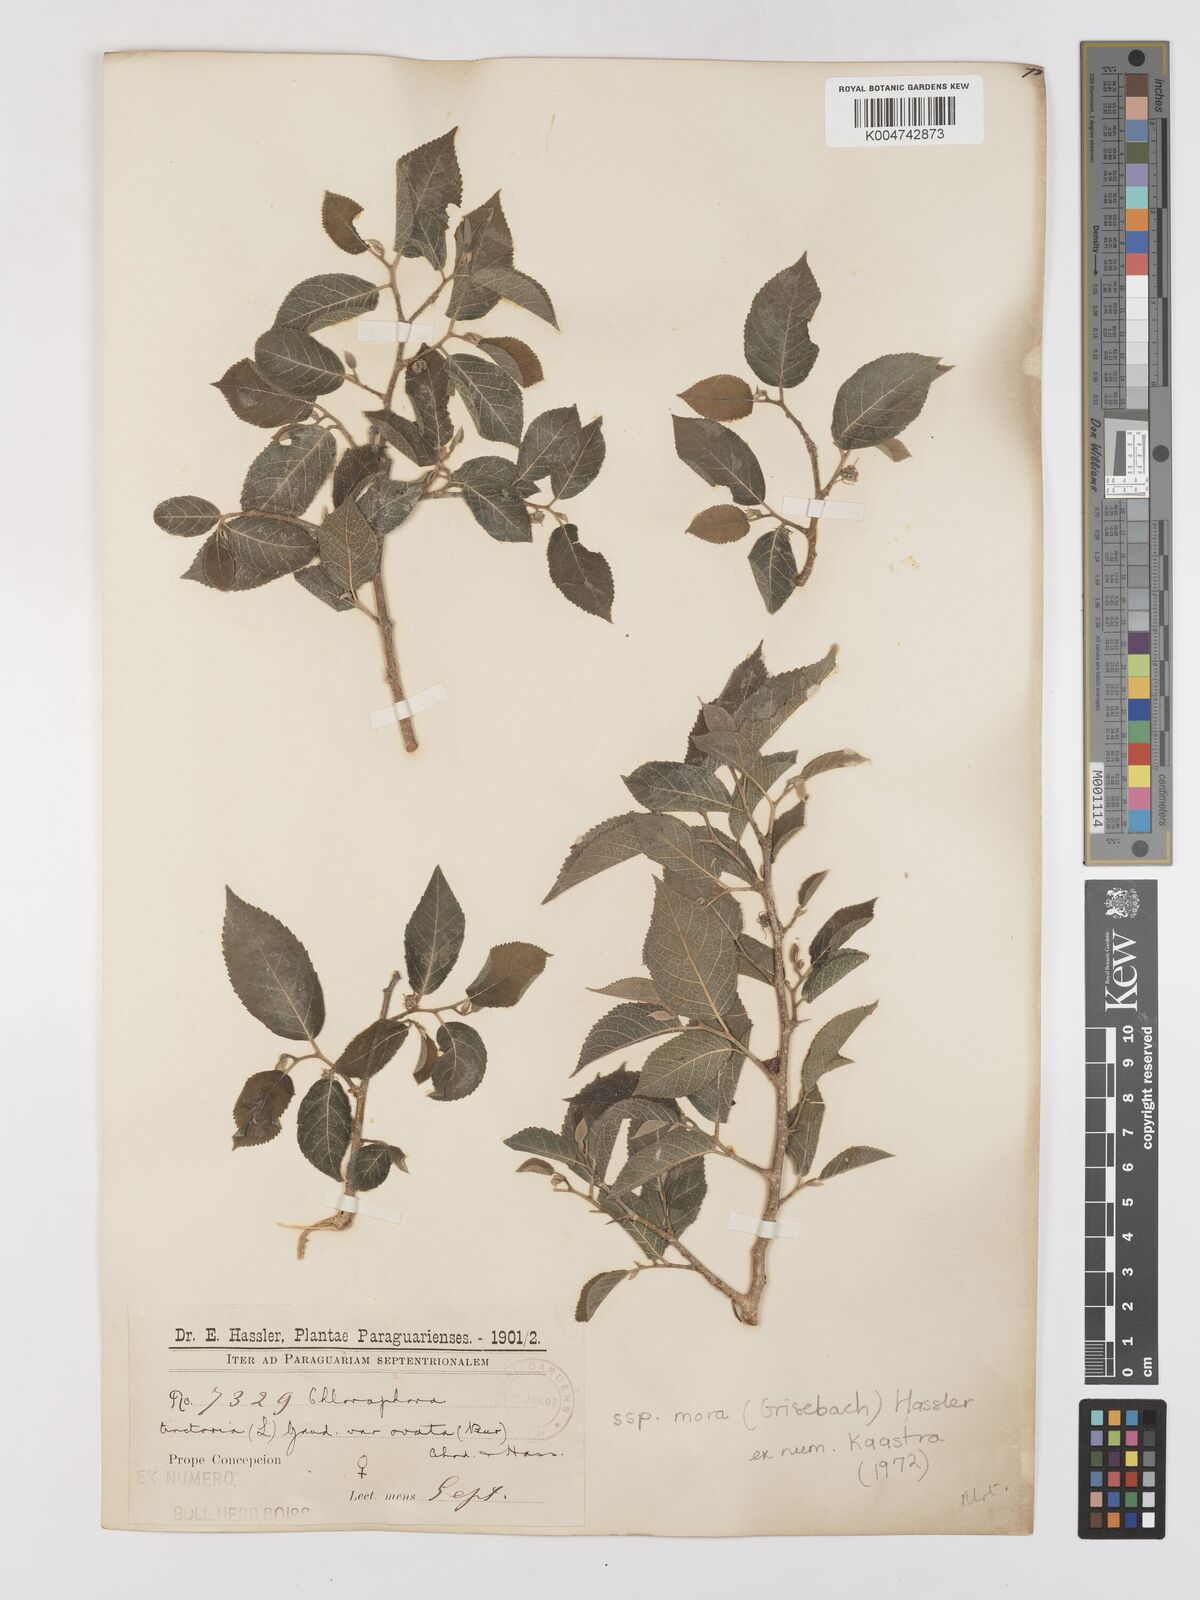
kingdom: Plantae
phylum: Tracheophyta
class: Magnoliopsida
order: Rosales
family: Moraceae
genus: Maclura
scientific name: Maclura tinctoria
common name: Old fustic
